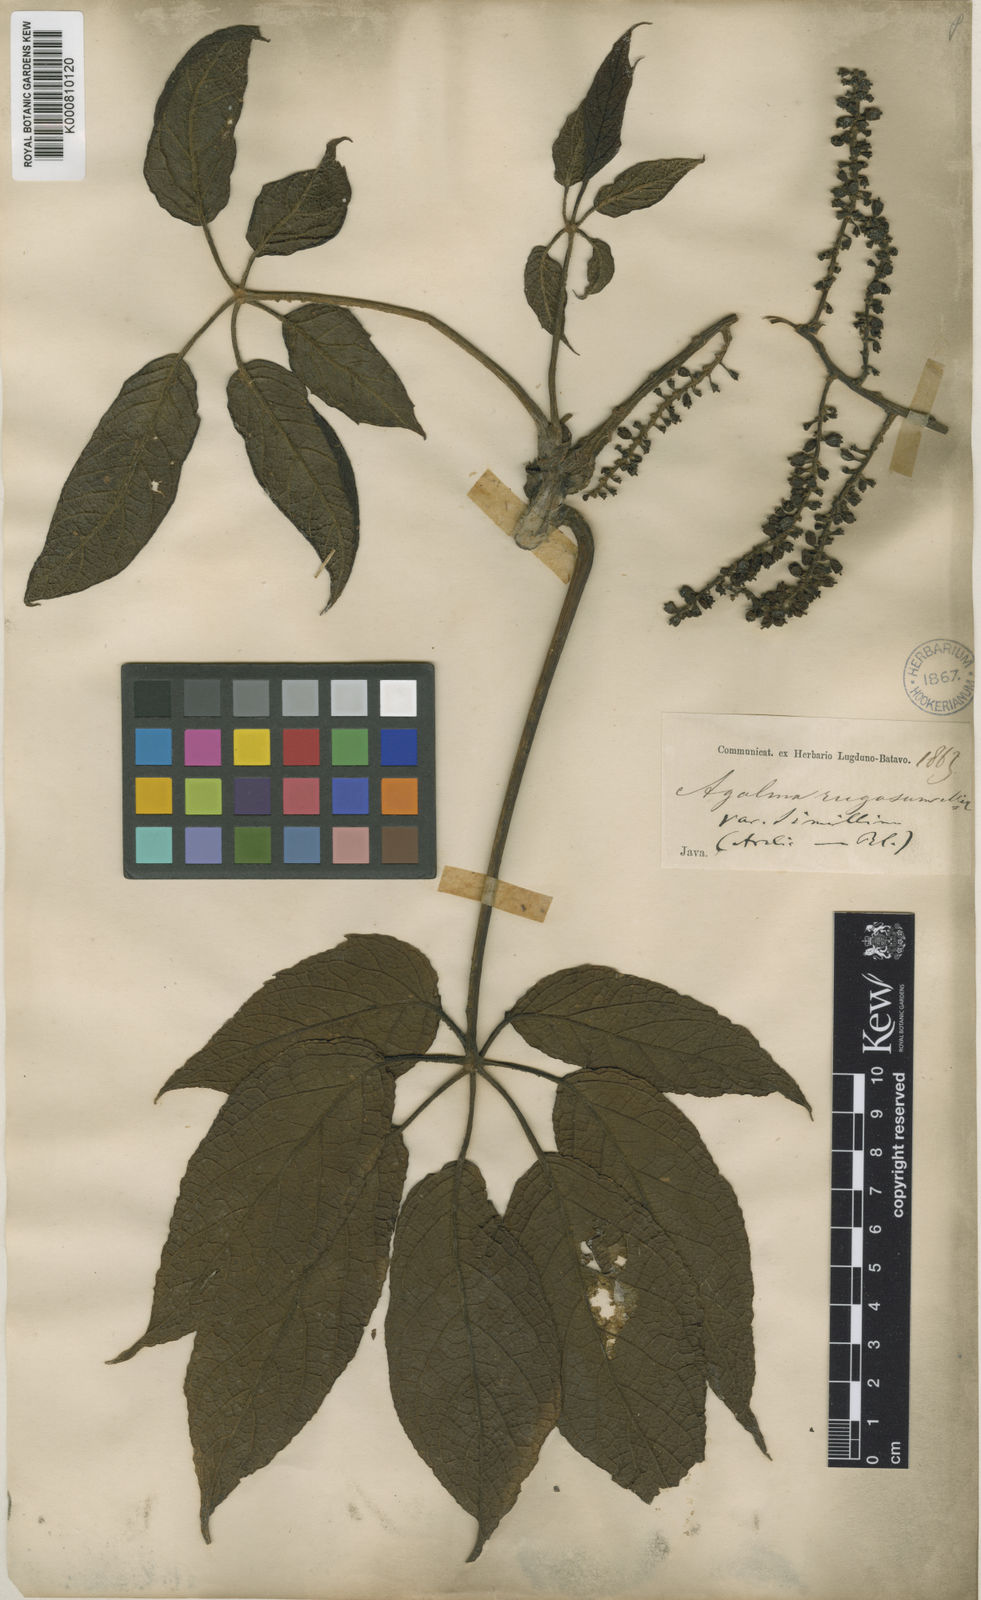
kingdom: Plantae
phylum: Tracheophyta
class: Magnoliopsida
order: Apiales
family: Araliaceae
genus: Heptapleurum
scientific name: Heptapleurum rugosum
